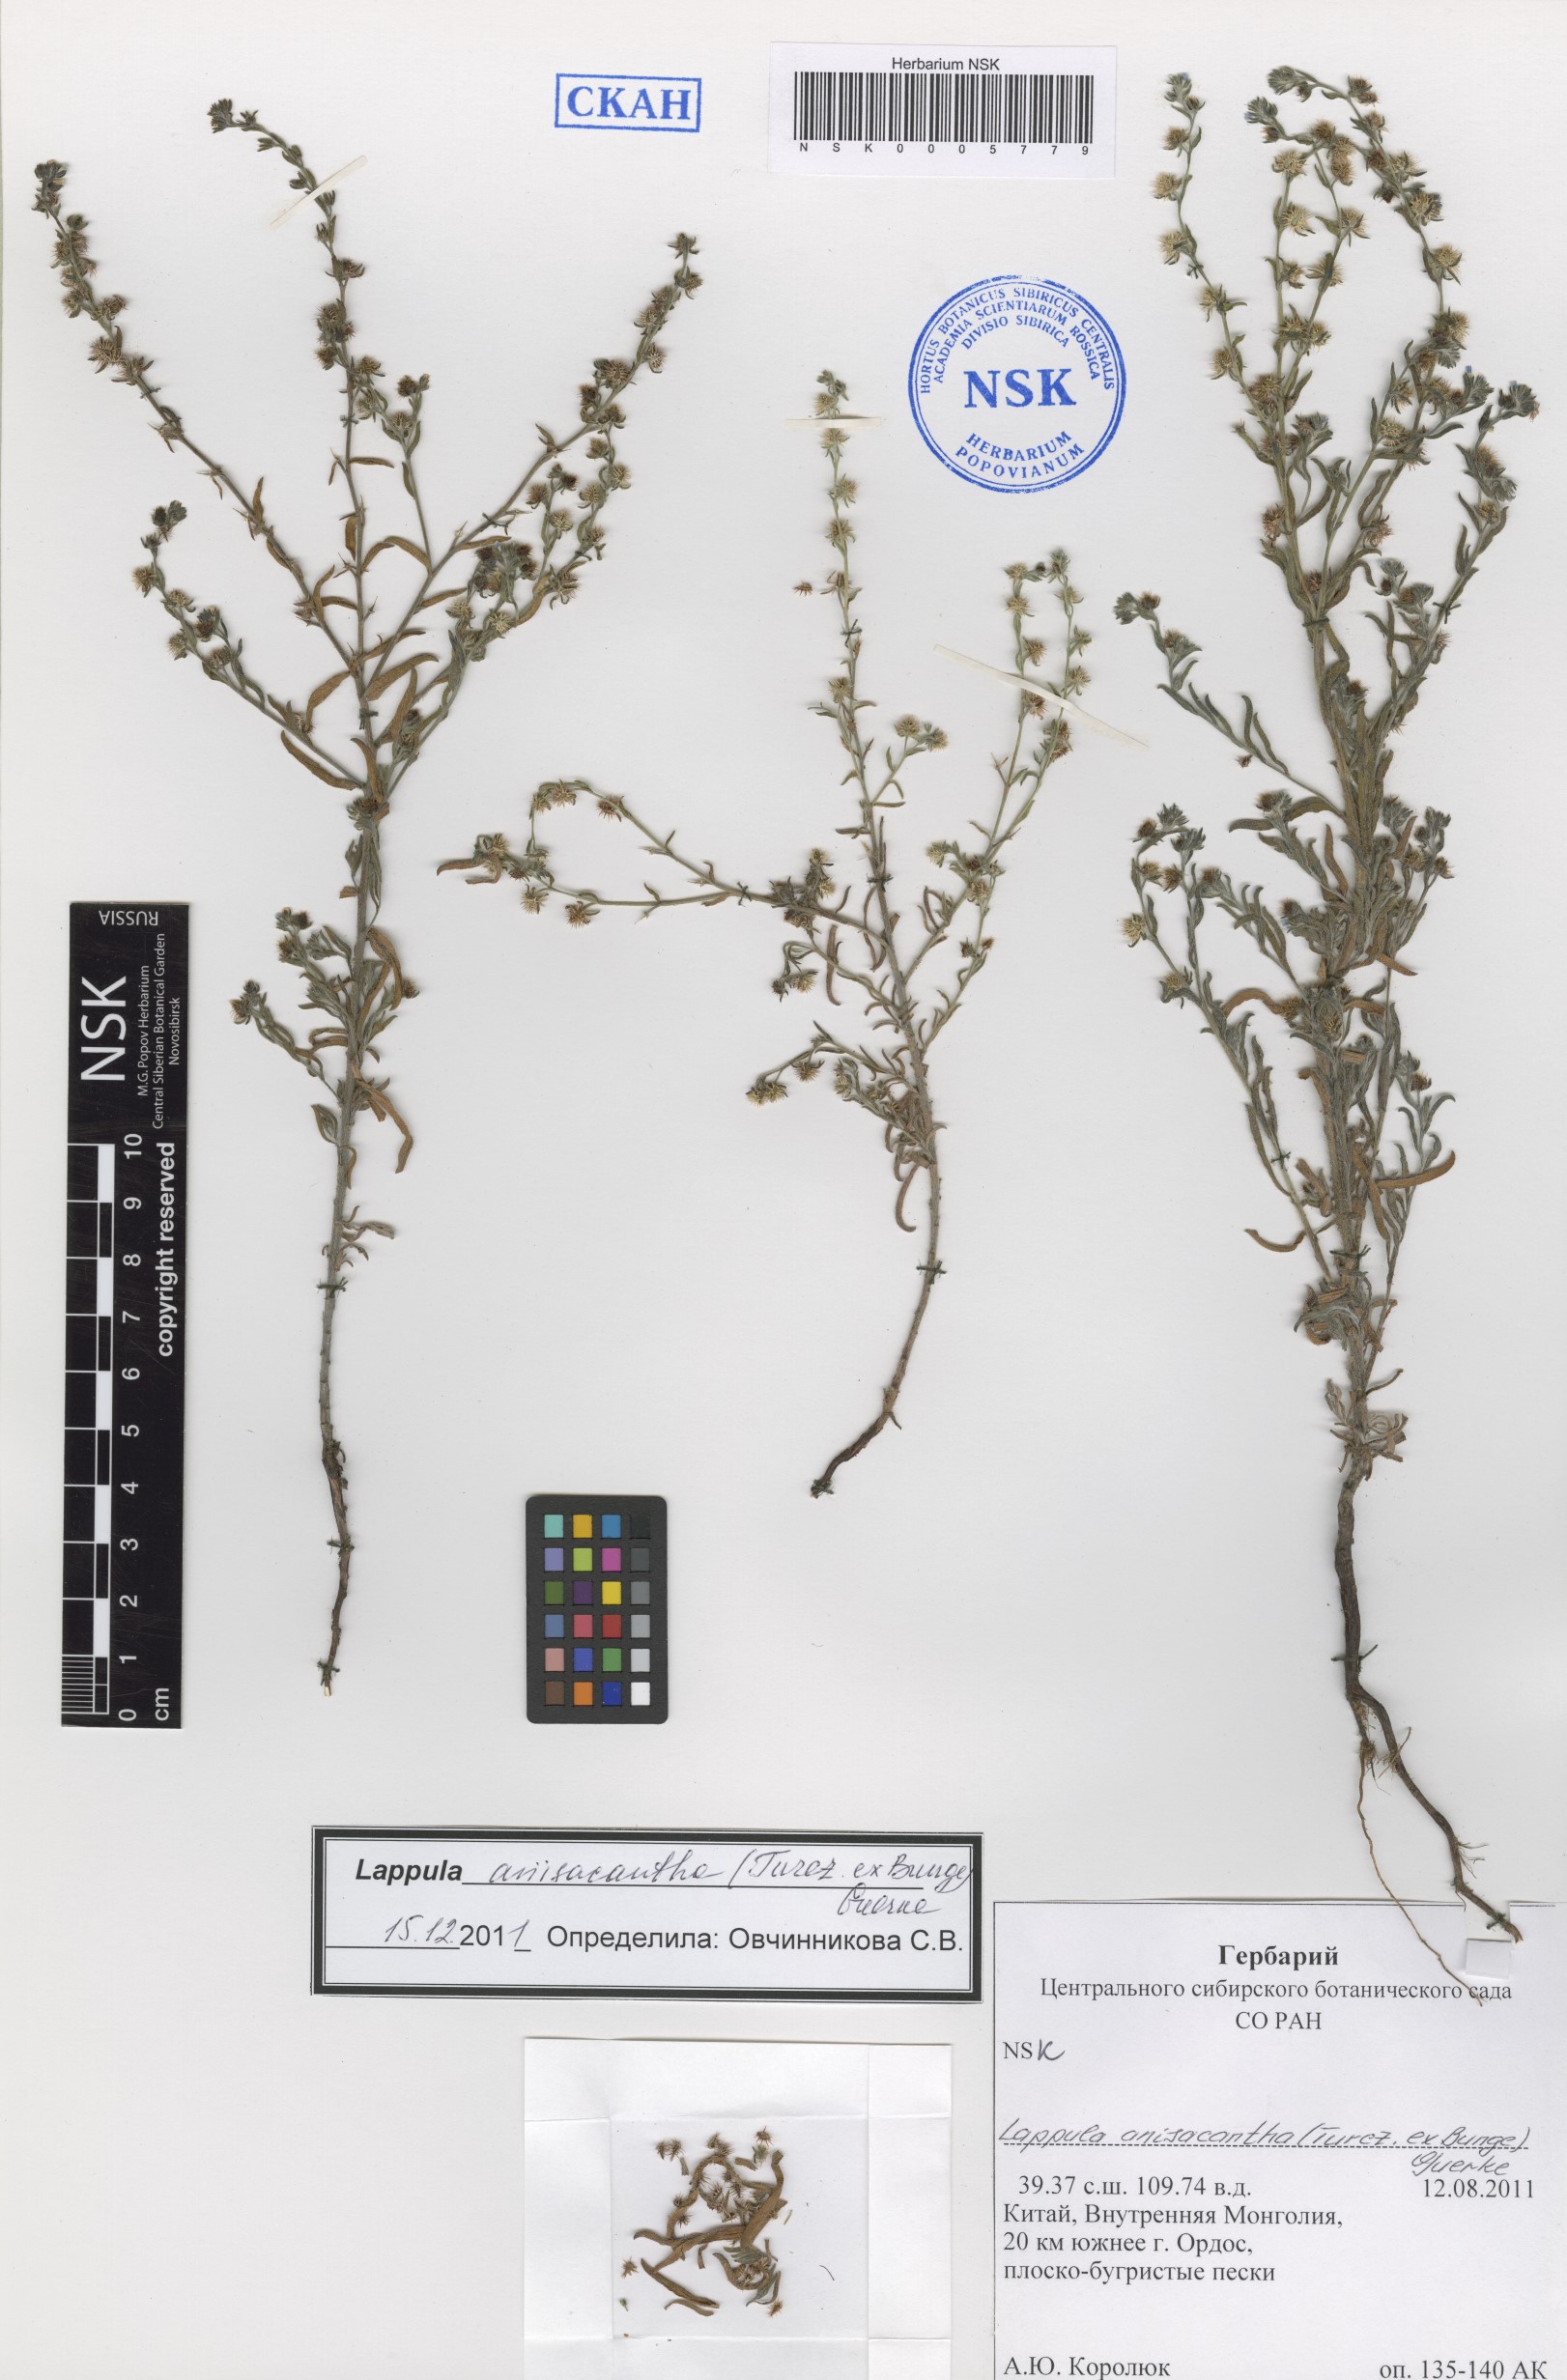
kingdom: Plantae
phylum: Tracheophyta
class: Magnoliopsida
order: Boraginales
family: Boraginaceae
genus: Lappula
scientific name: Lappula intermedia
